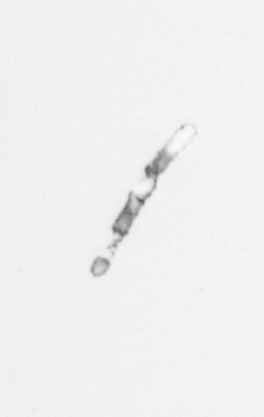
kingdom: Chromista
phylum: Ochrophyta
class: Bacillariophyceae
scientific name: Bacillariophyceae
